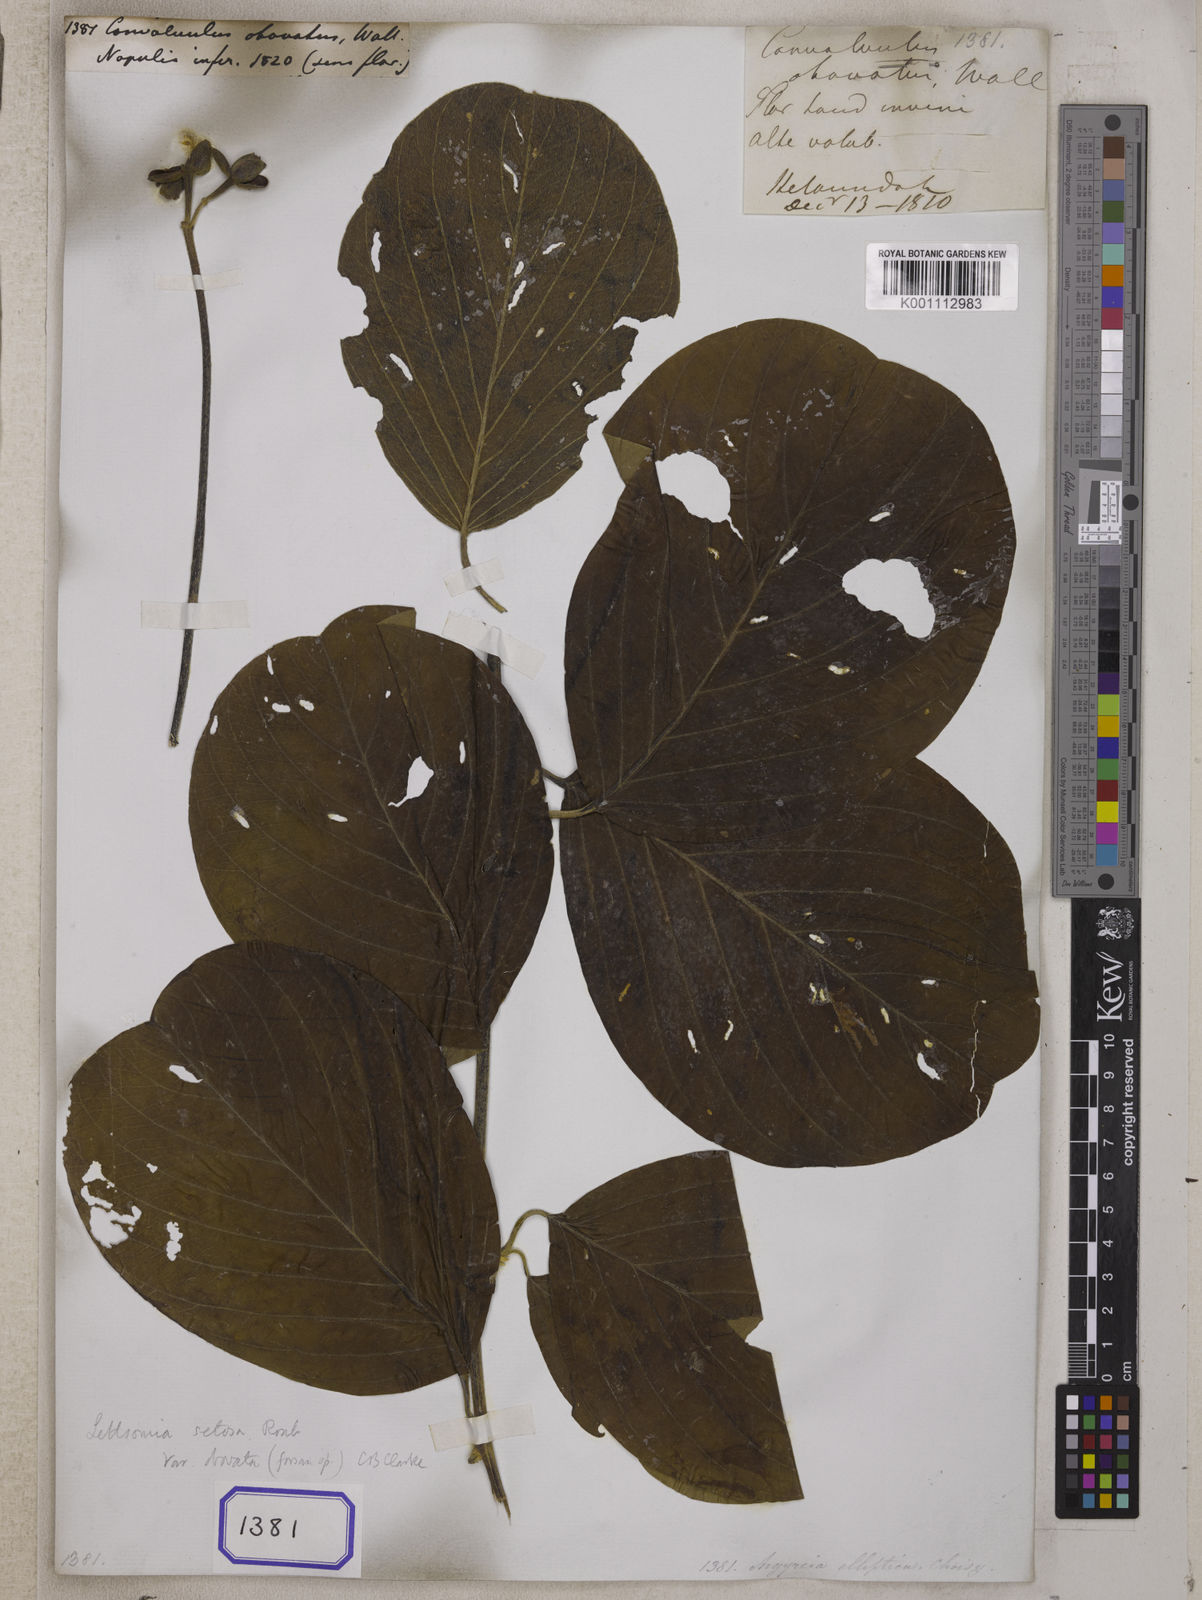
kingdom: Plantae
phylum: Tracheophyta
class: Magnoliopsida
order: Solanales
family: Convolvulaceae
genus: Convolvulus
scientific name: Convolvulus
